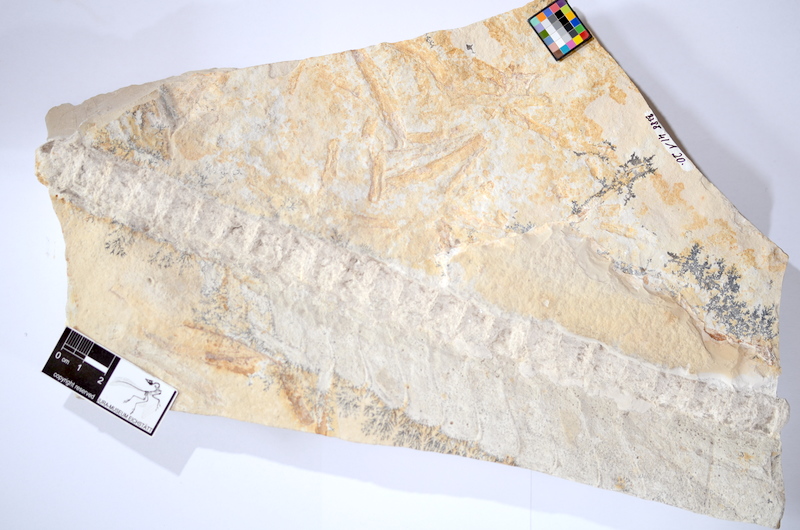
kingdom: Animalia
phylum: Chordata
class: Elasmobranchii
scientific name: Elasmobranchii
